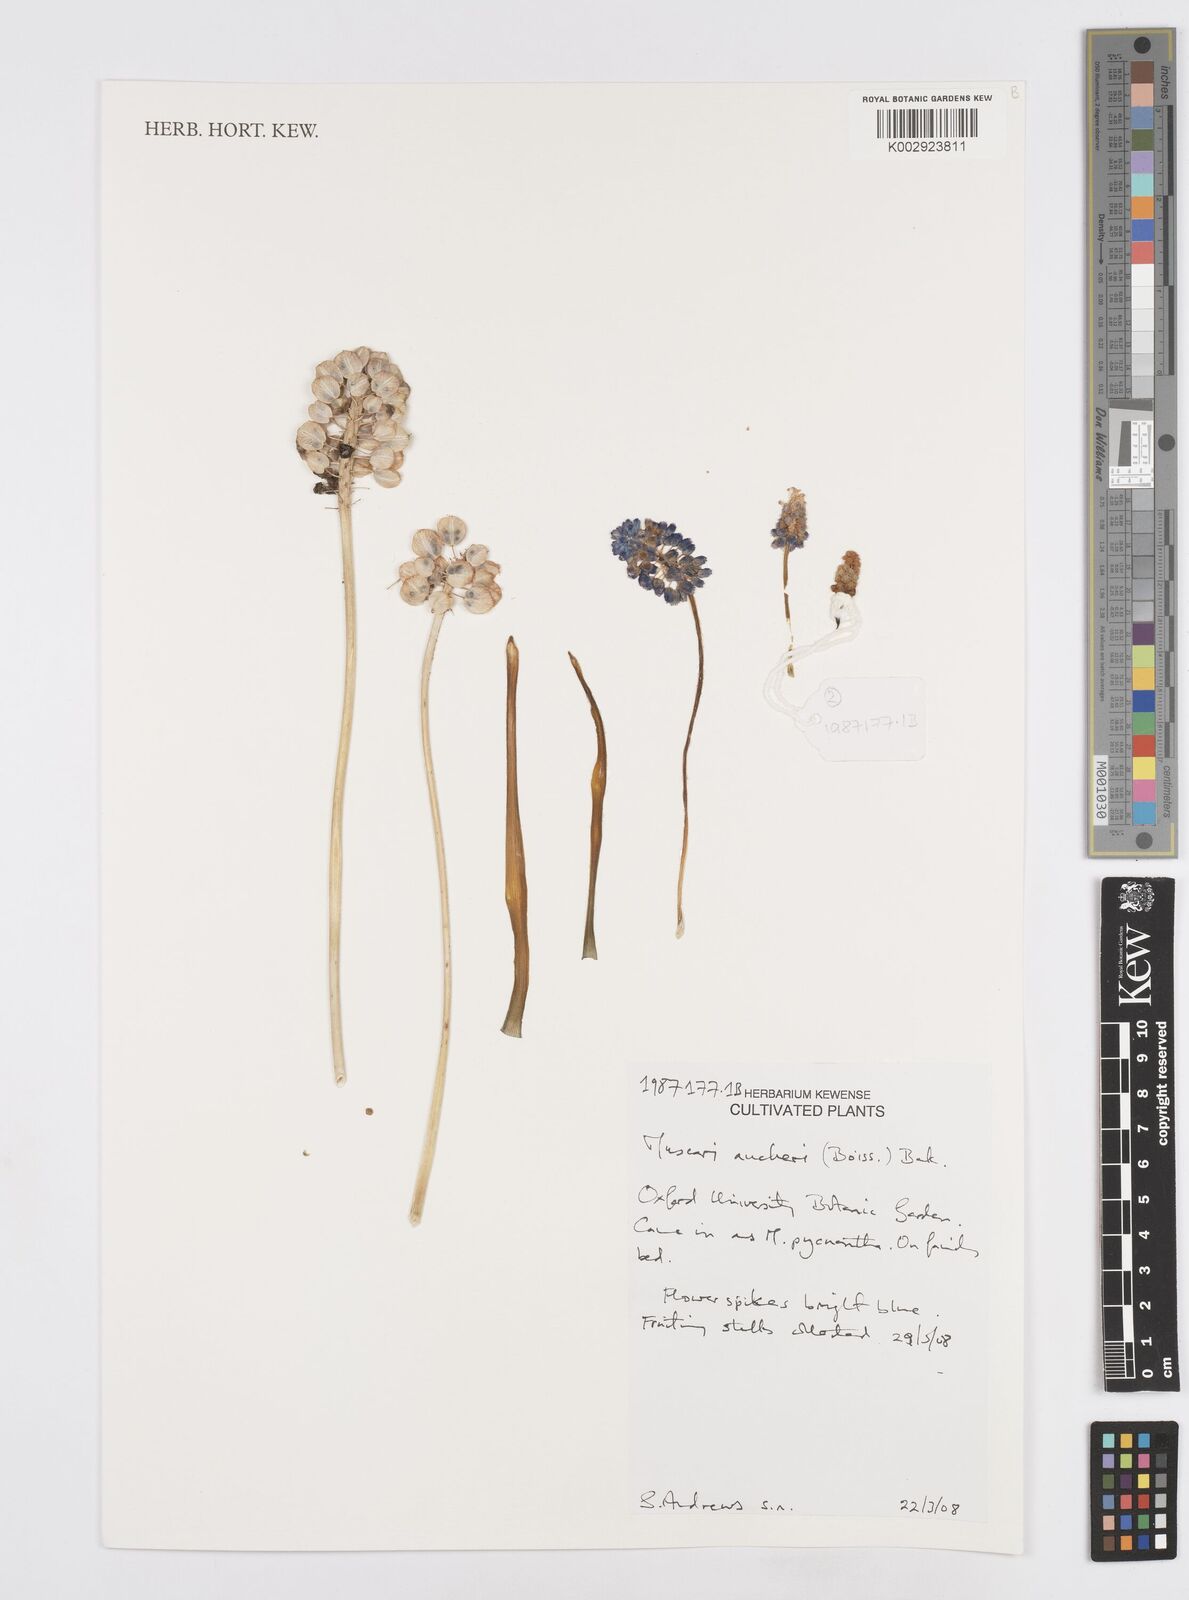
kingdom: Plantae
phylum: Tracheophyta
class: Liliopsida
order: Asparagales
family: Asparagaceae
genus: Muscari
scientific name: Muscari aucheri
